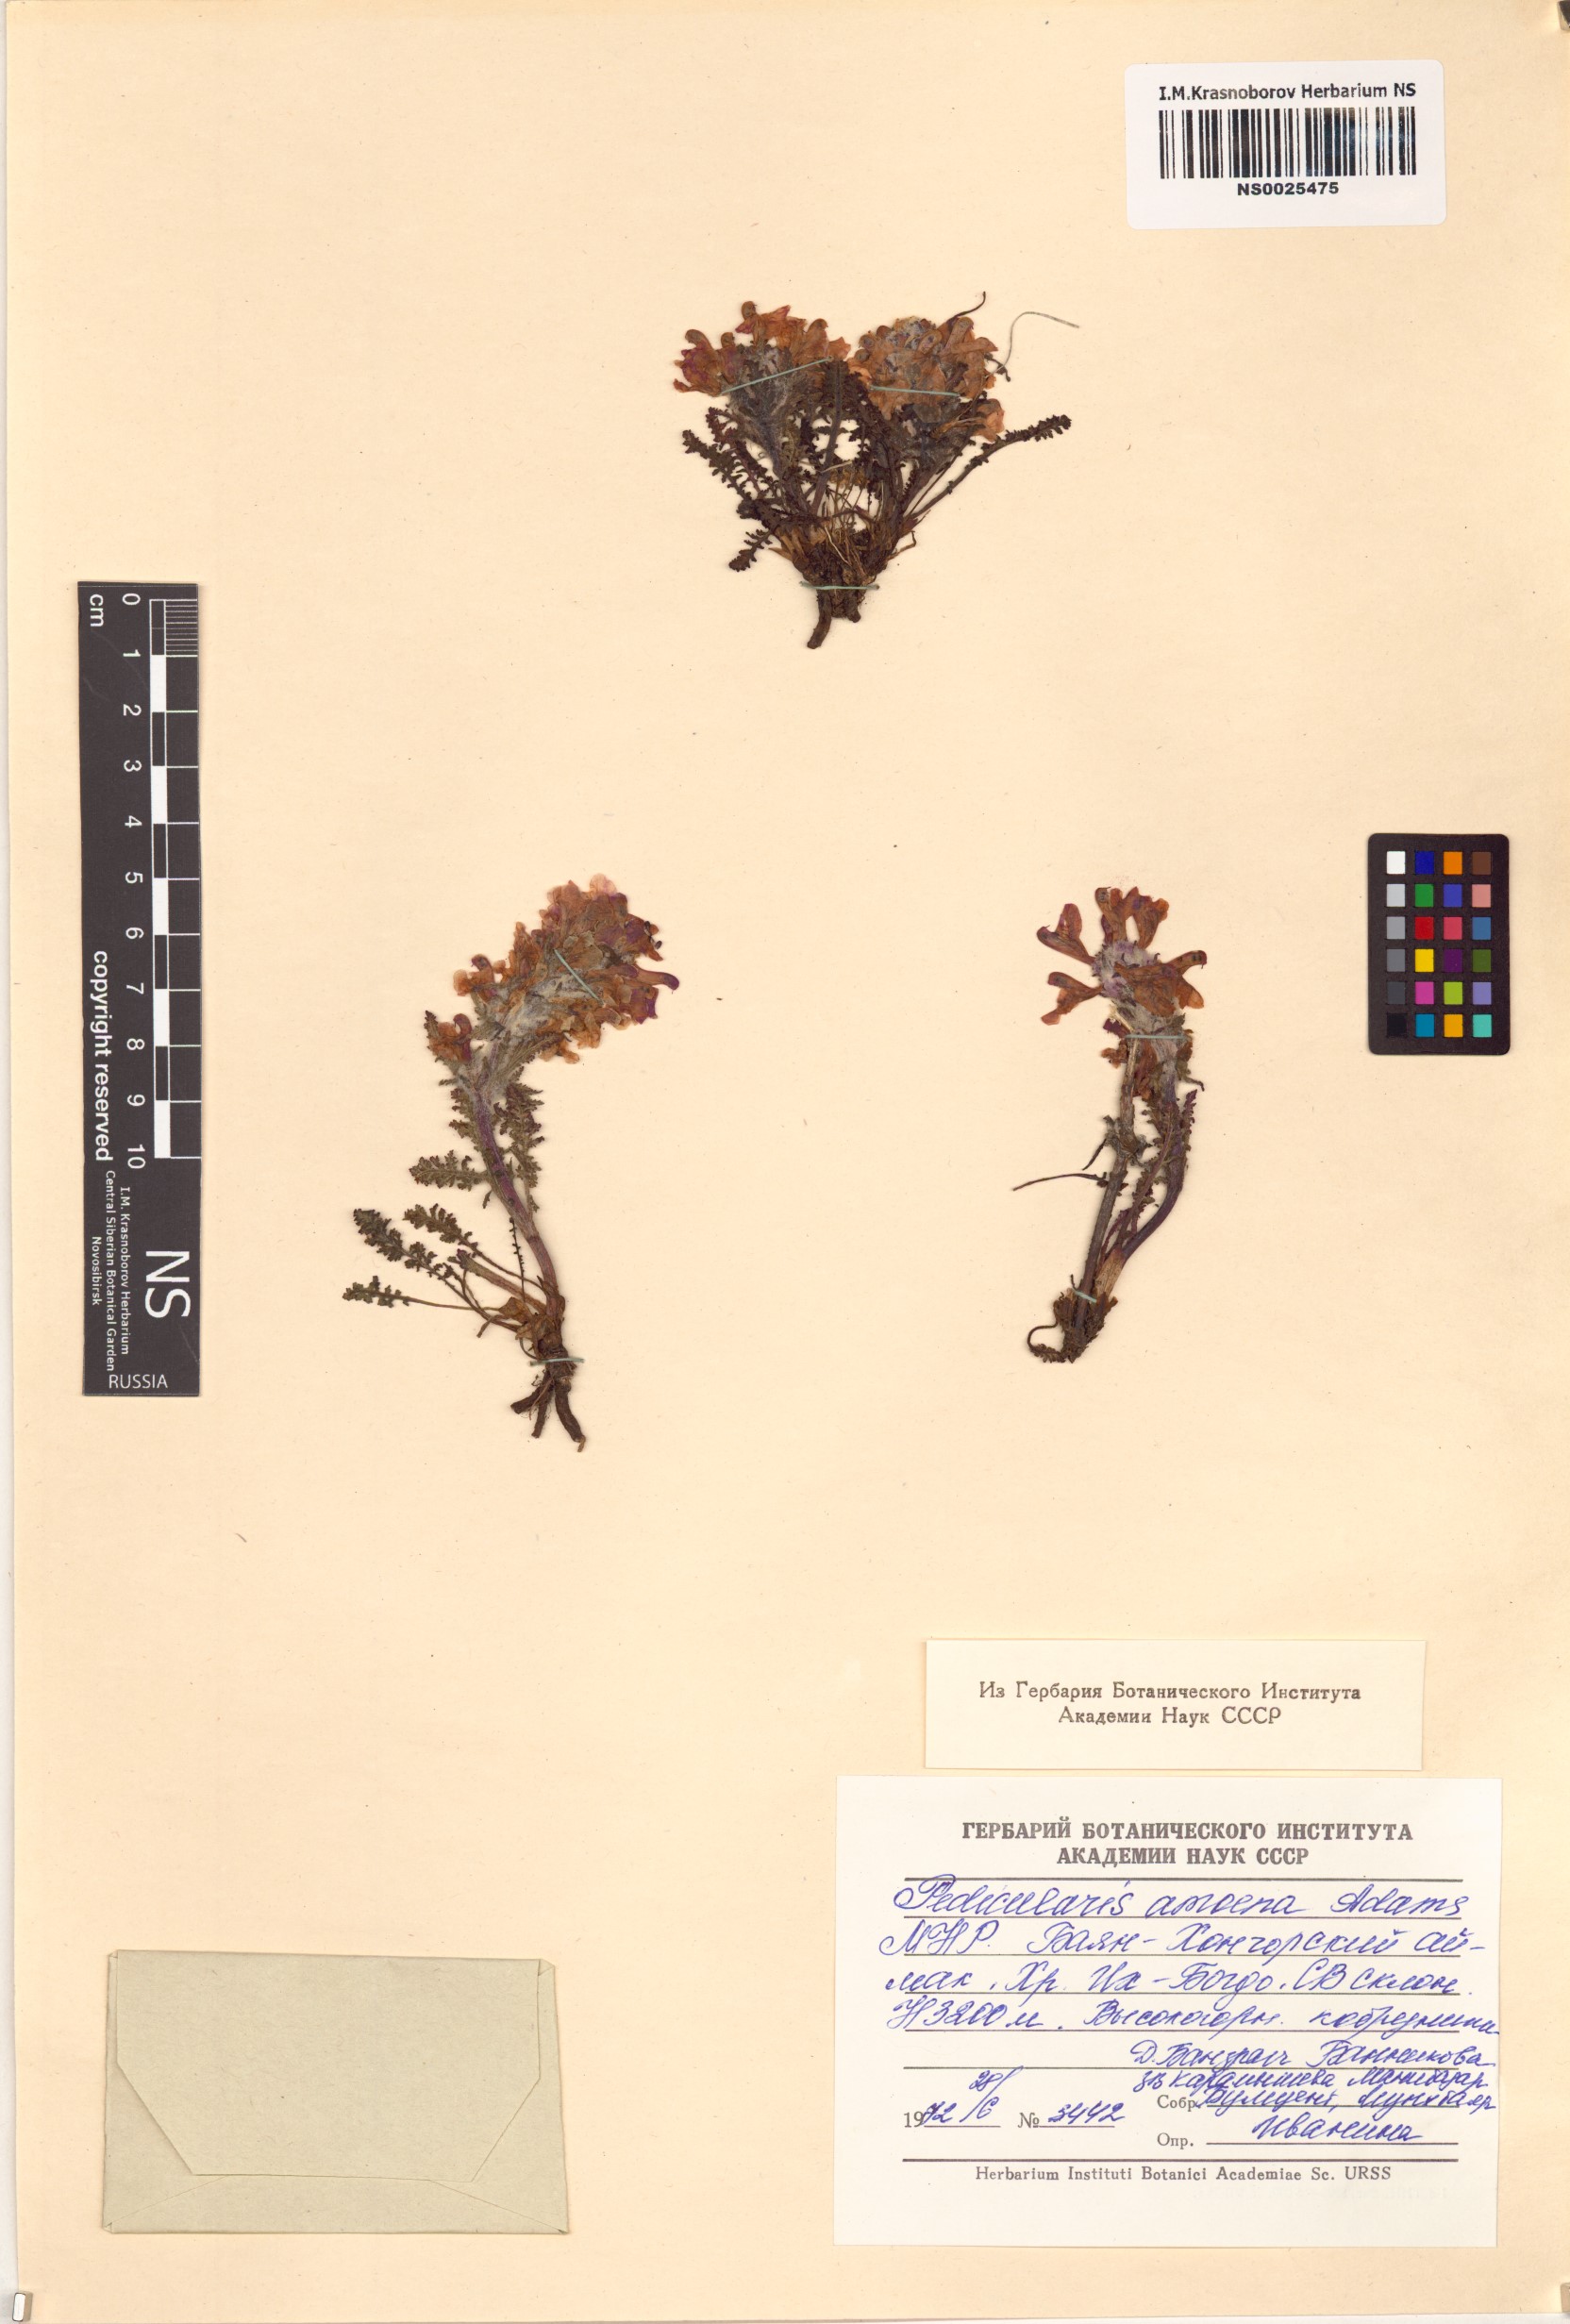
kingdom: Plantae
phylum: Tracheophyta
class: Magnoliopsida
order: Lamiales
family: Orobanchaceae
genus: Pedicularis
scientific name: Pedicularis amoena
